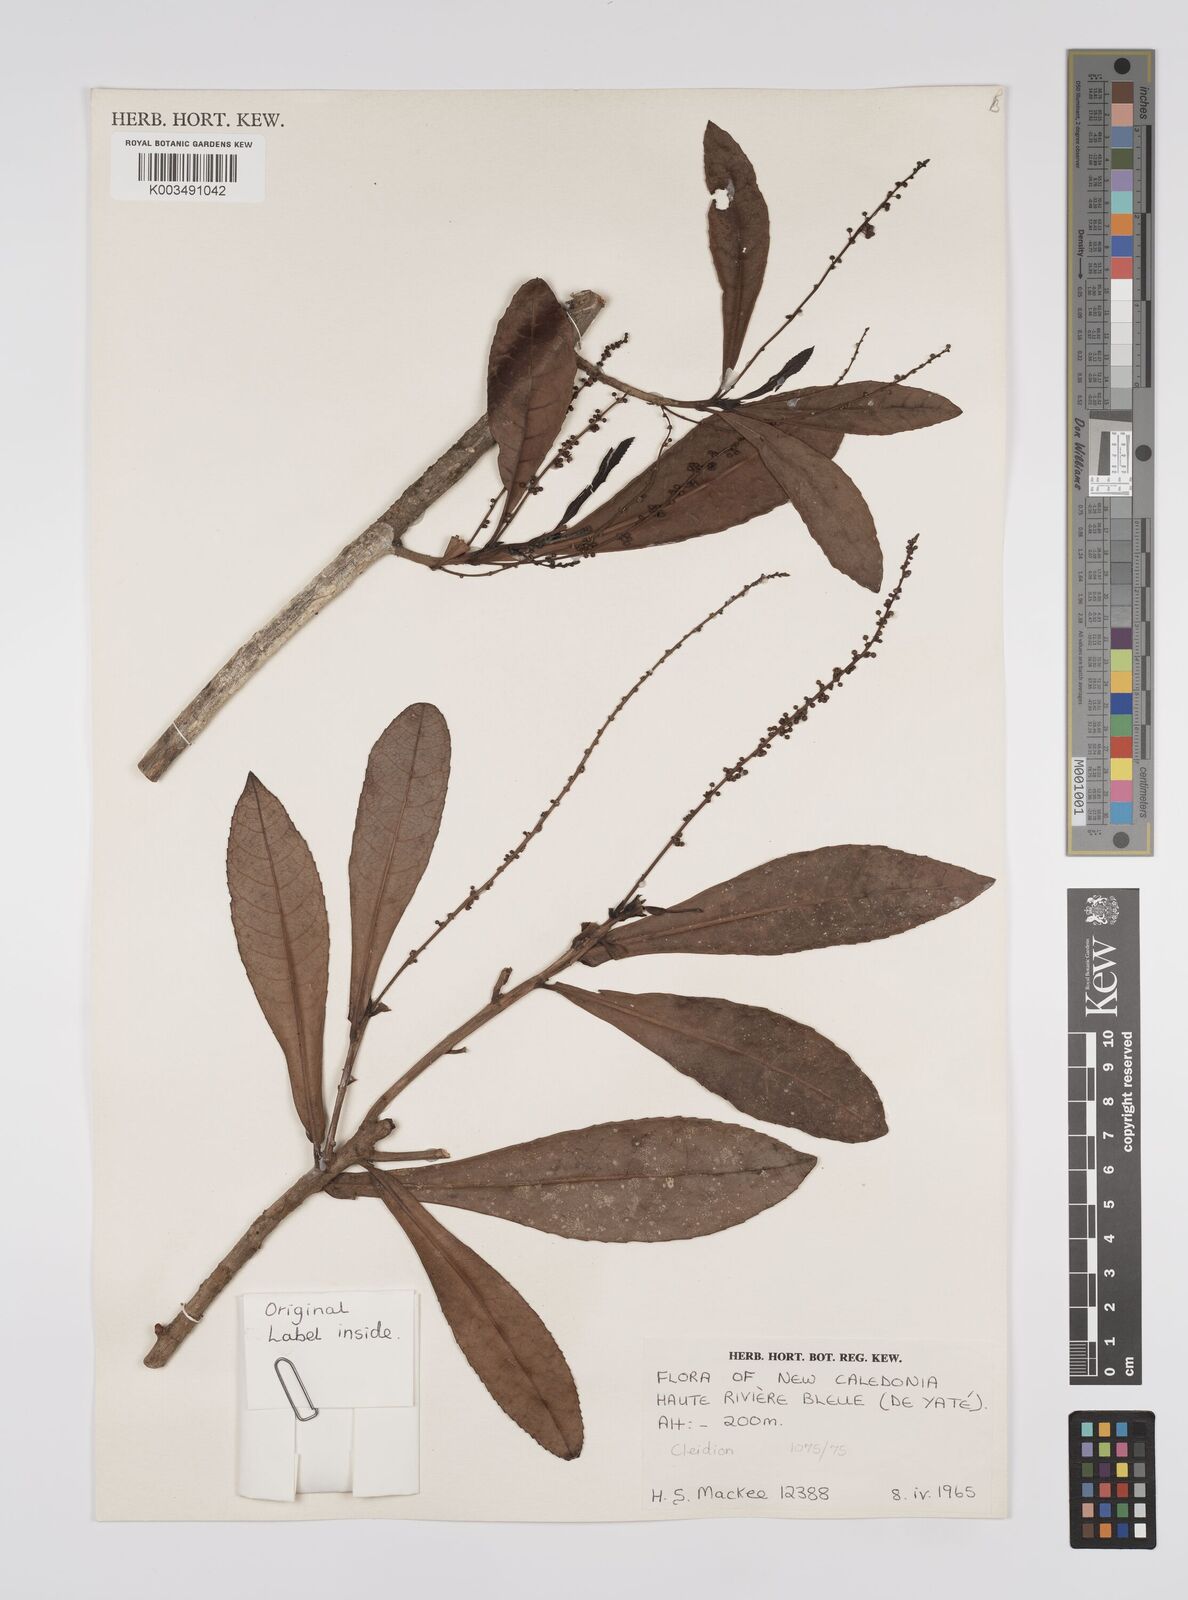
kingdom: Plantae
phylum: Tracheophyta
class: Magnoliopsida
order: Malpighiales
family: Euphorbiaceae
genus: Cleidion
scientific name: Cleidion vieillardii
